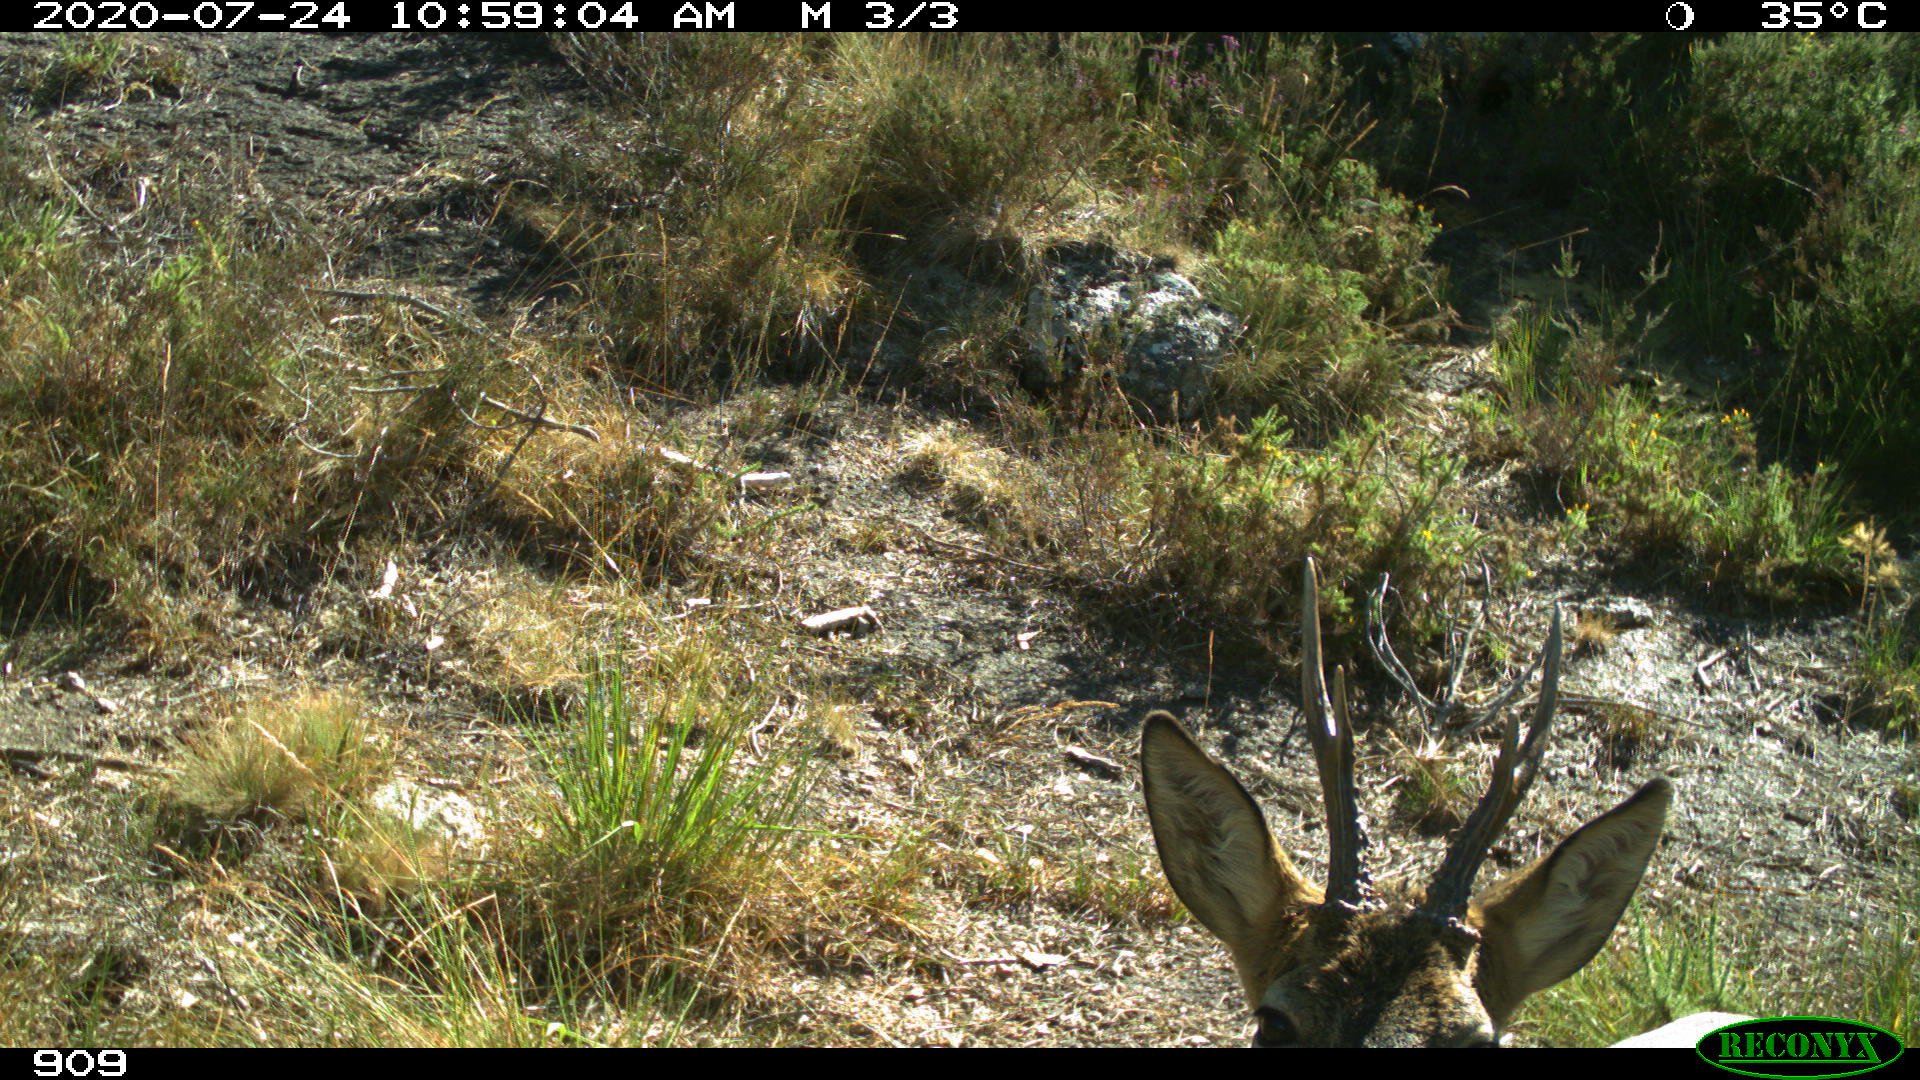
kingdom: Animalia
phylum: Chordata
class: Mammalia
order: Artiodactyla
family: Cervidae
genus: Capreolus
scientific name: Capreolus capreolus
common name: Western roe deer
